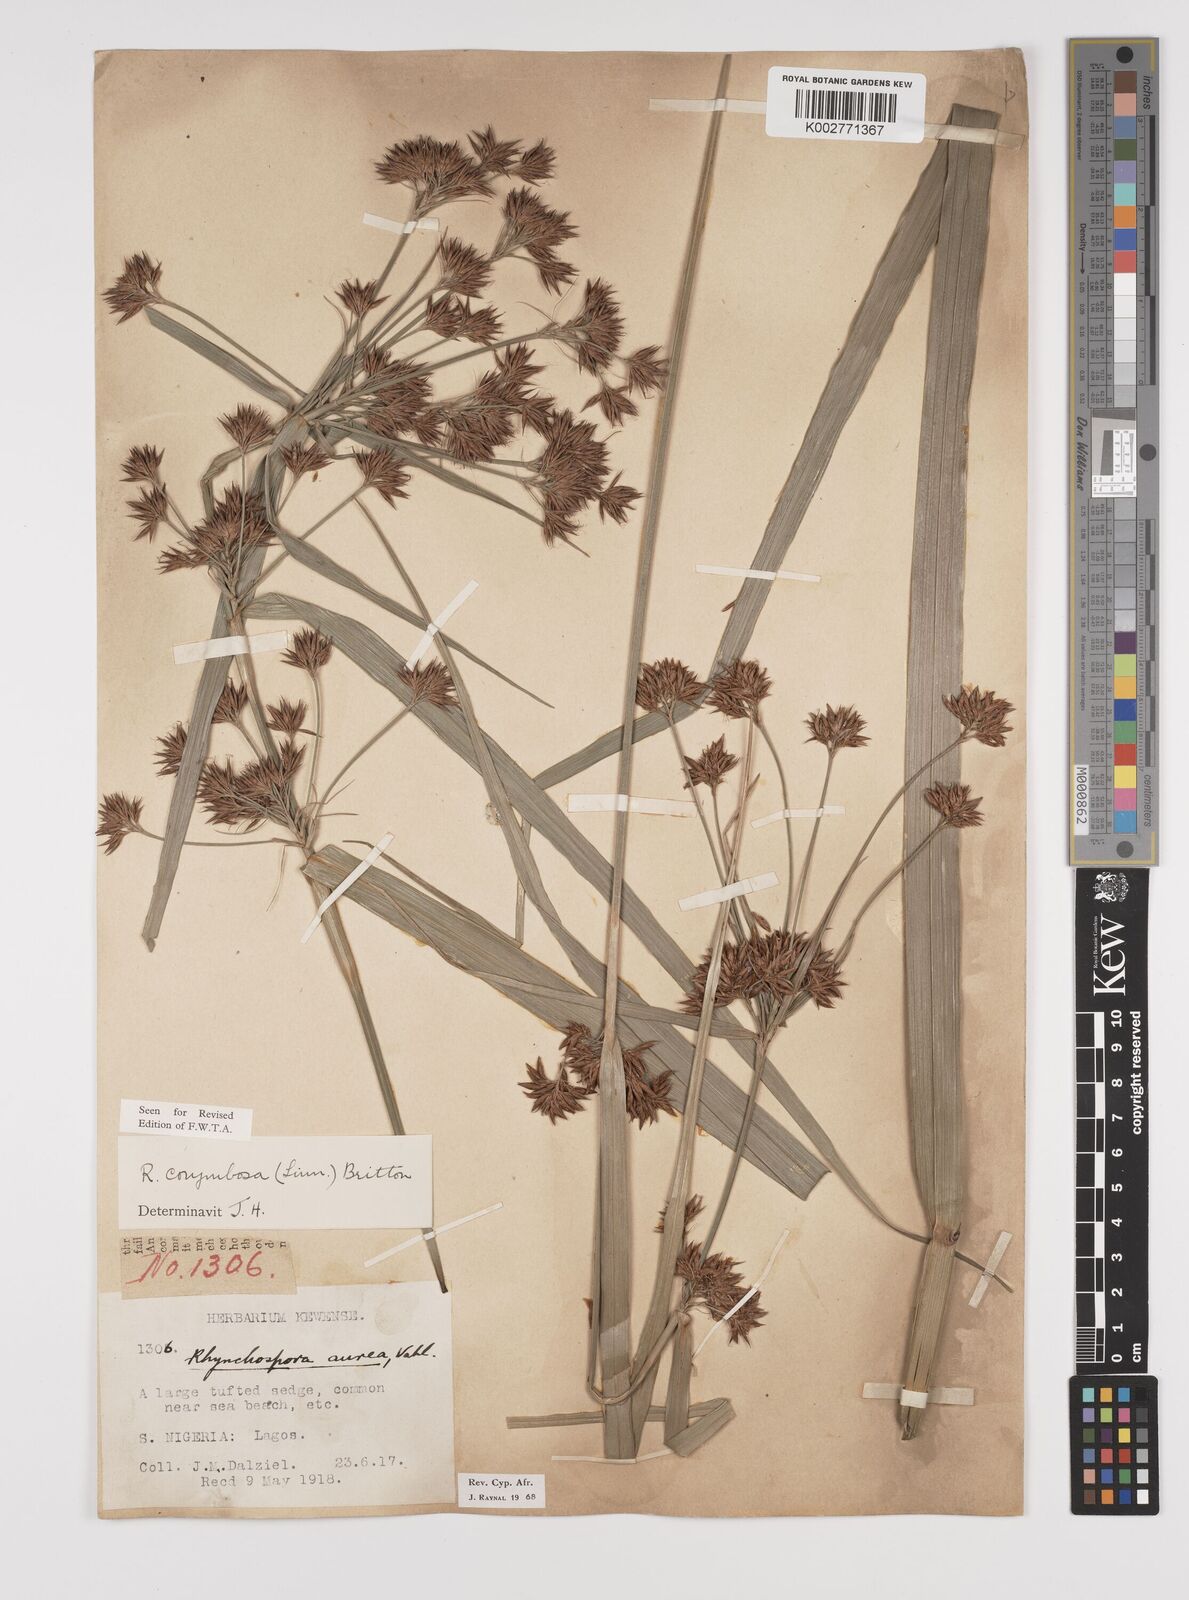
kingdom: Plantae
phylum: Tracheophyta
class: Liliopsida
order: Poales
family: Cyperaceae
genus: Rhynchospora
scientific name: Rhynchospora corymbosa
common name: Golden beak sedge
